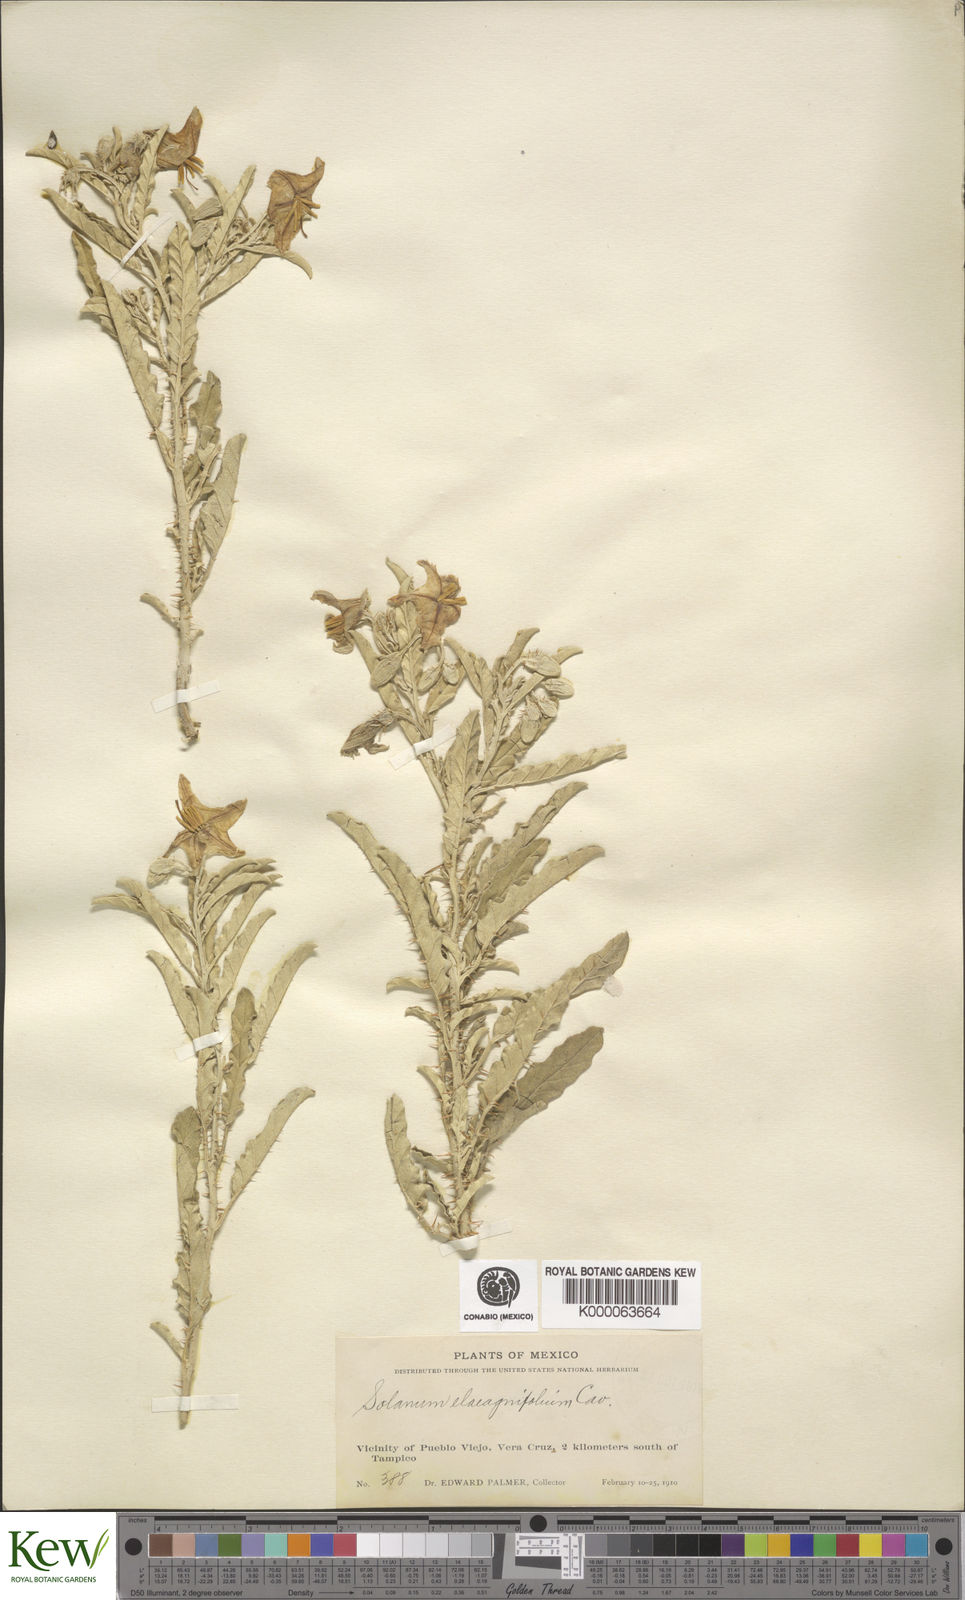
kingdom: Plantae
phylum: Tracheophyta
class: Magnoliopsida
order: Solanales
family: Solanaceae
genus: Solanum
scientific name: Solanum elaeagnifolium
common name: Silverleaf nightshade
